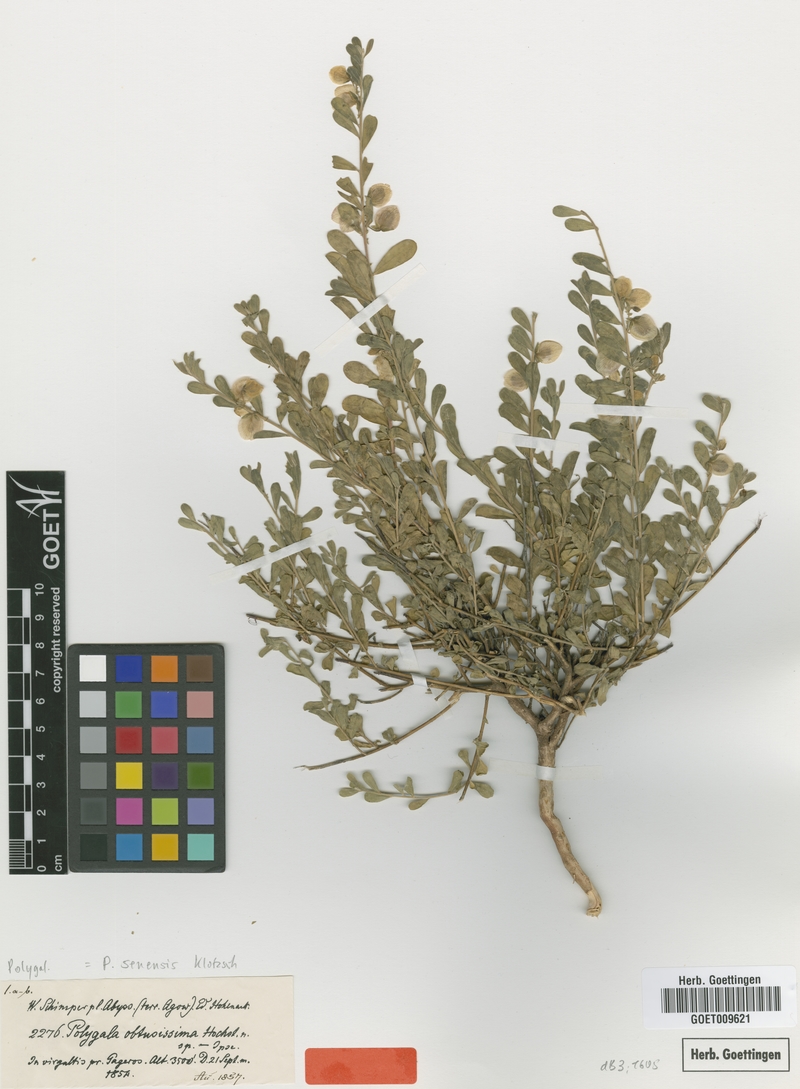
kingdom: Plantae
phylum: Tracheophyta
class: Magnoliopsida
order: Fabales
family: Polygalaceae
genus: Polygala
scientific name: Polygala senensis
